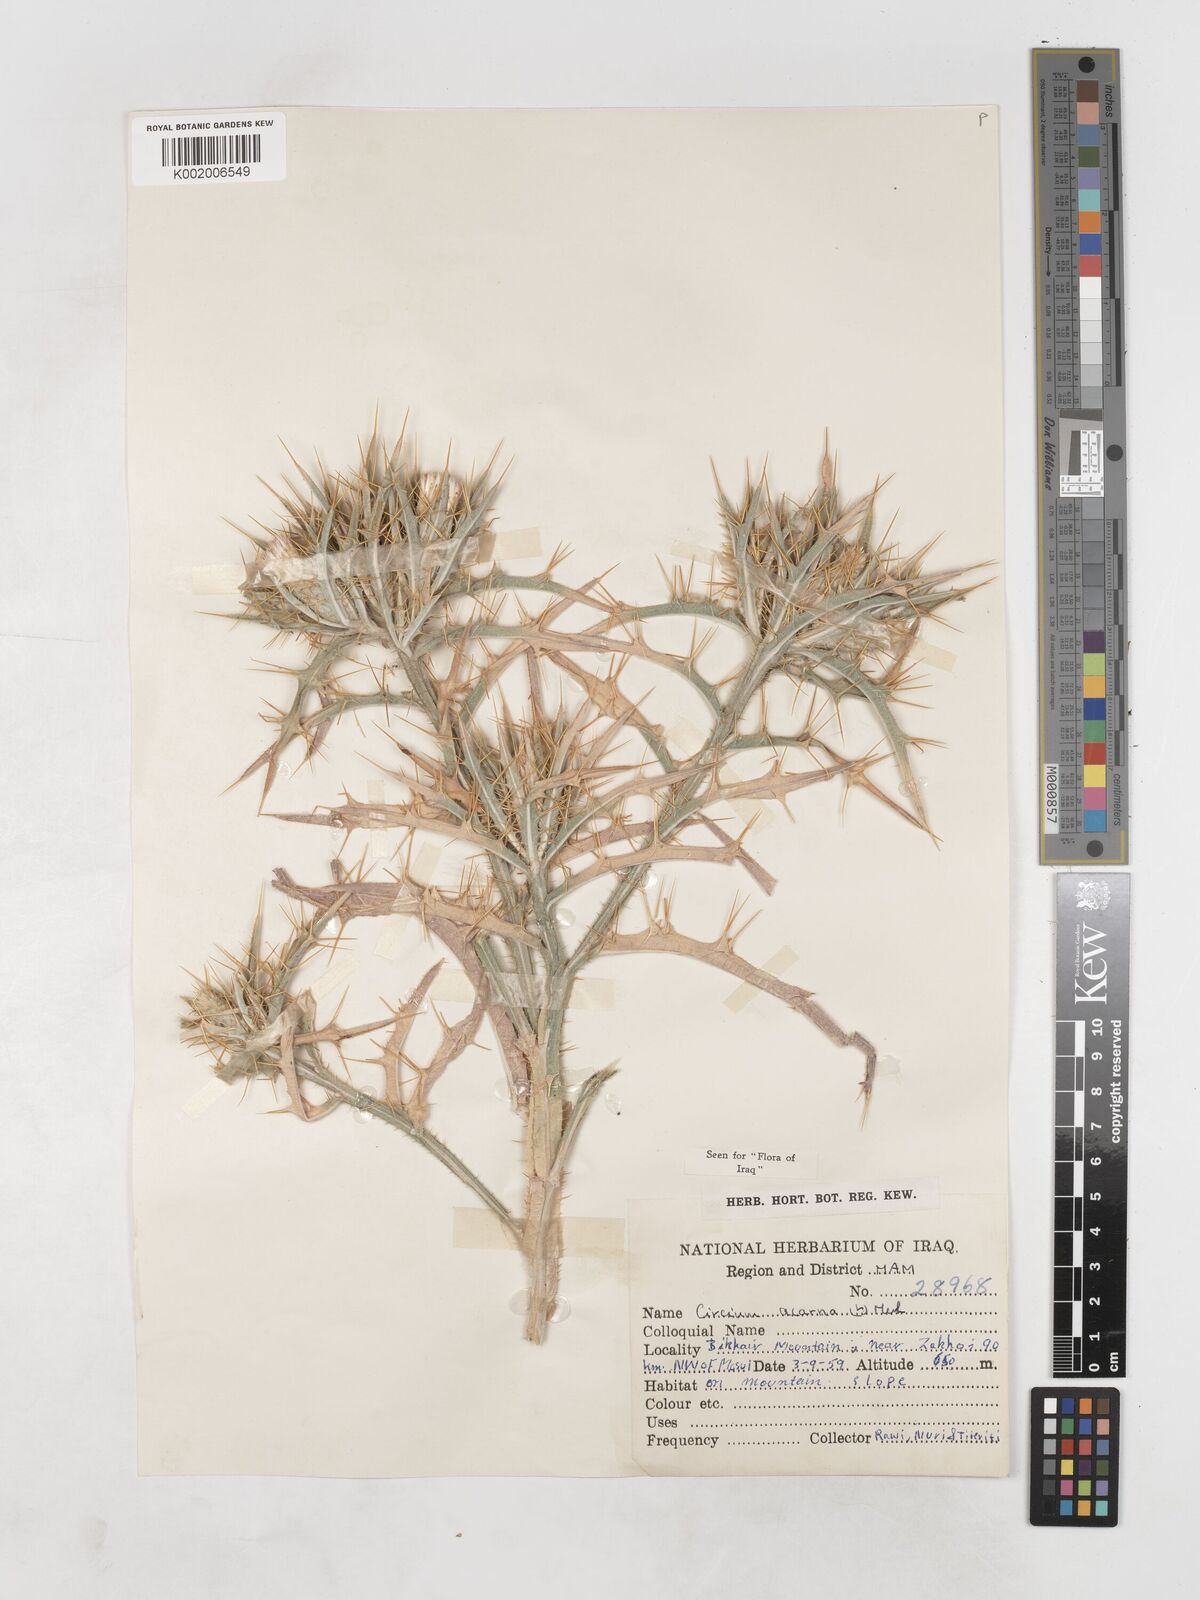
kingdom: Plantae
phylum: Tracheophyta
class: Magnoliopsida
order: Asterales
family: Asteraceae
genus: Picnomon
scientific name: Picnomon acarna
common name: Soldier thistle
